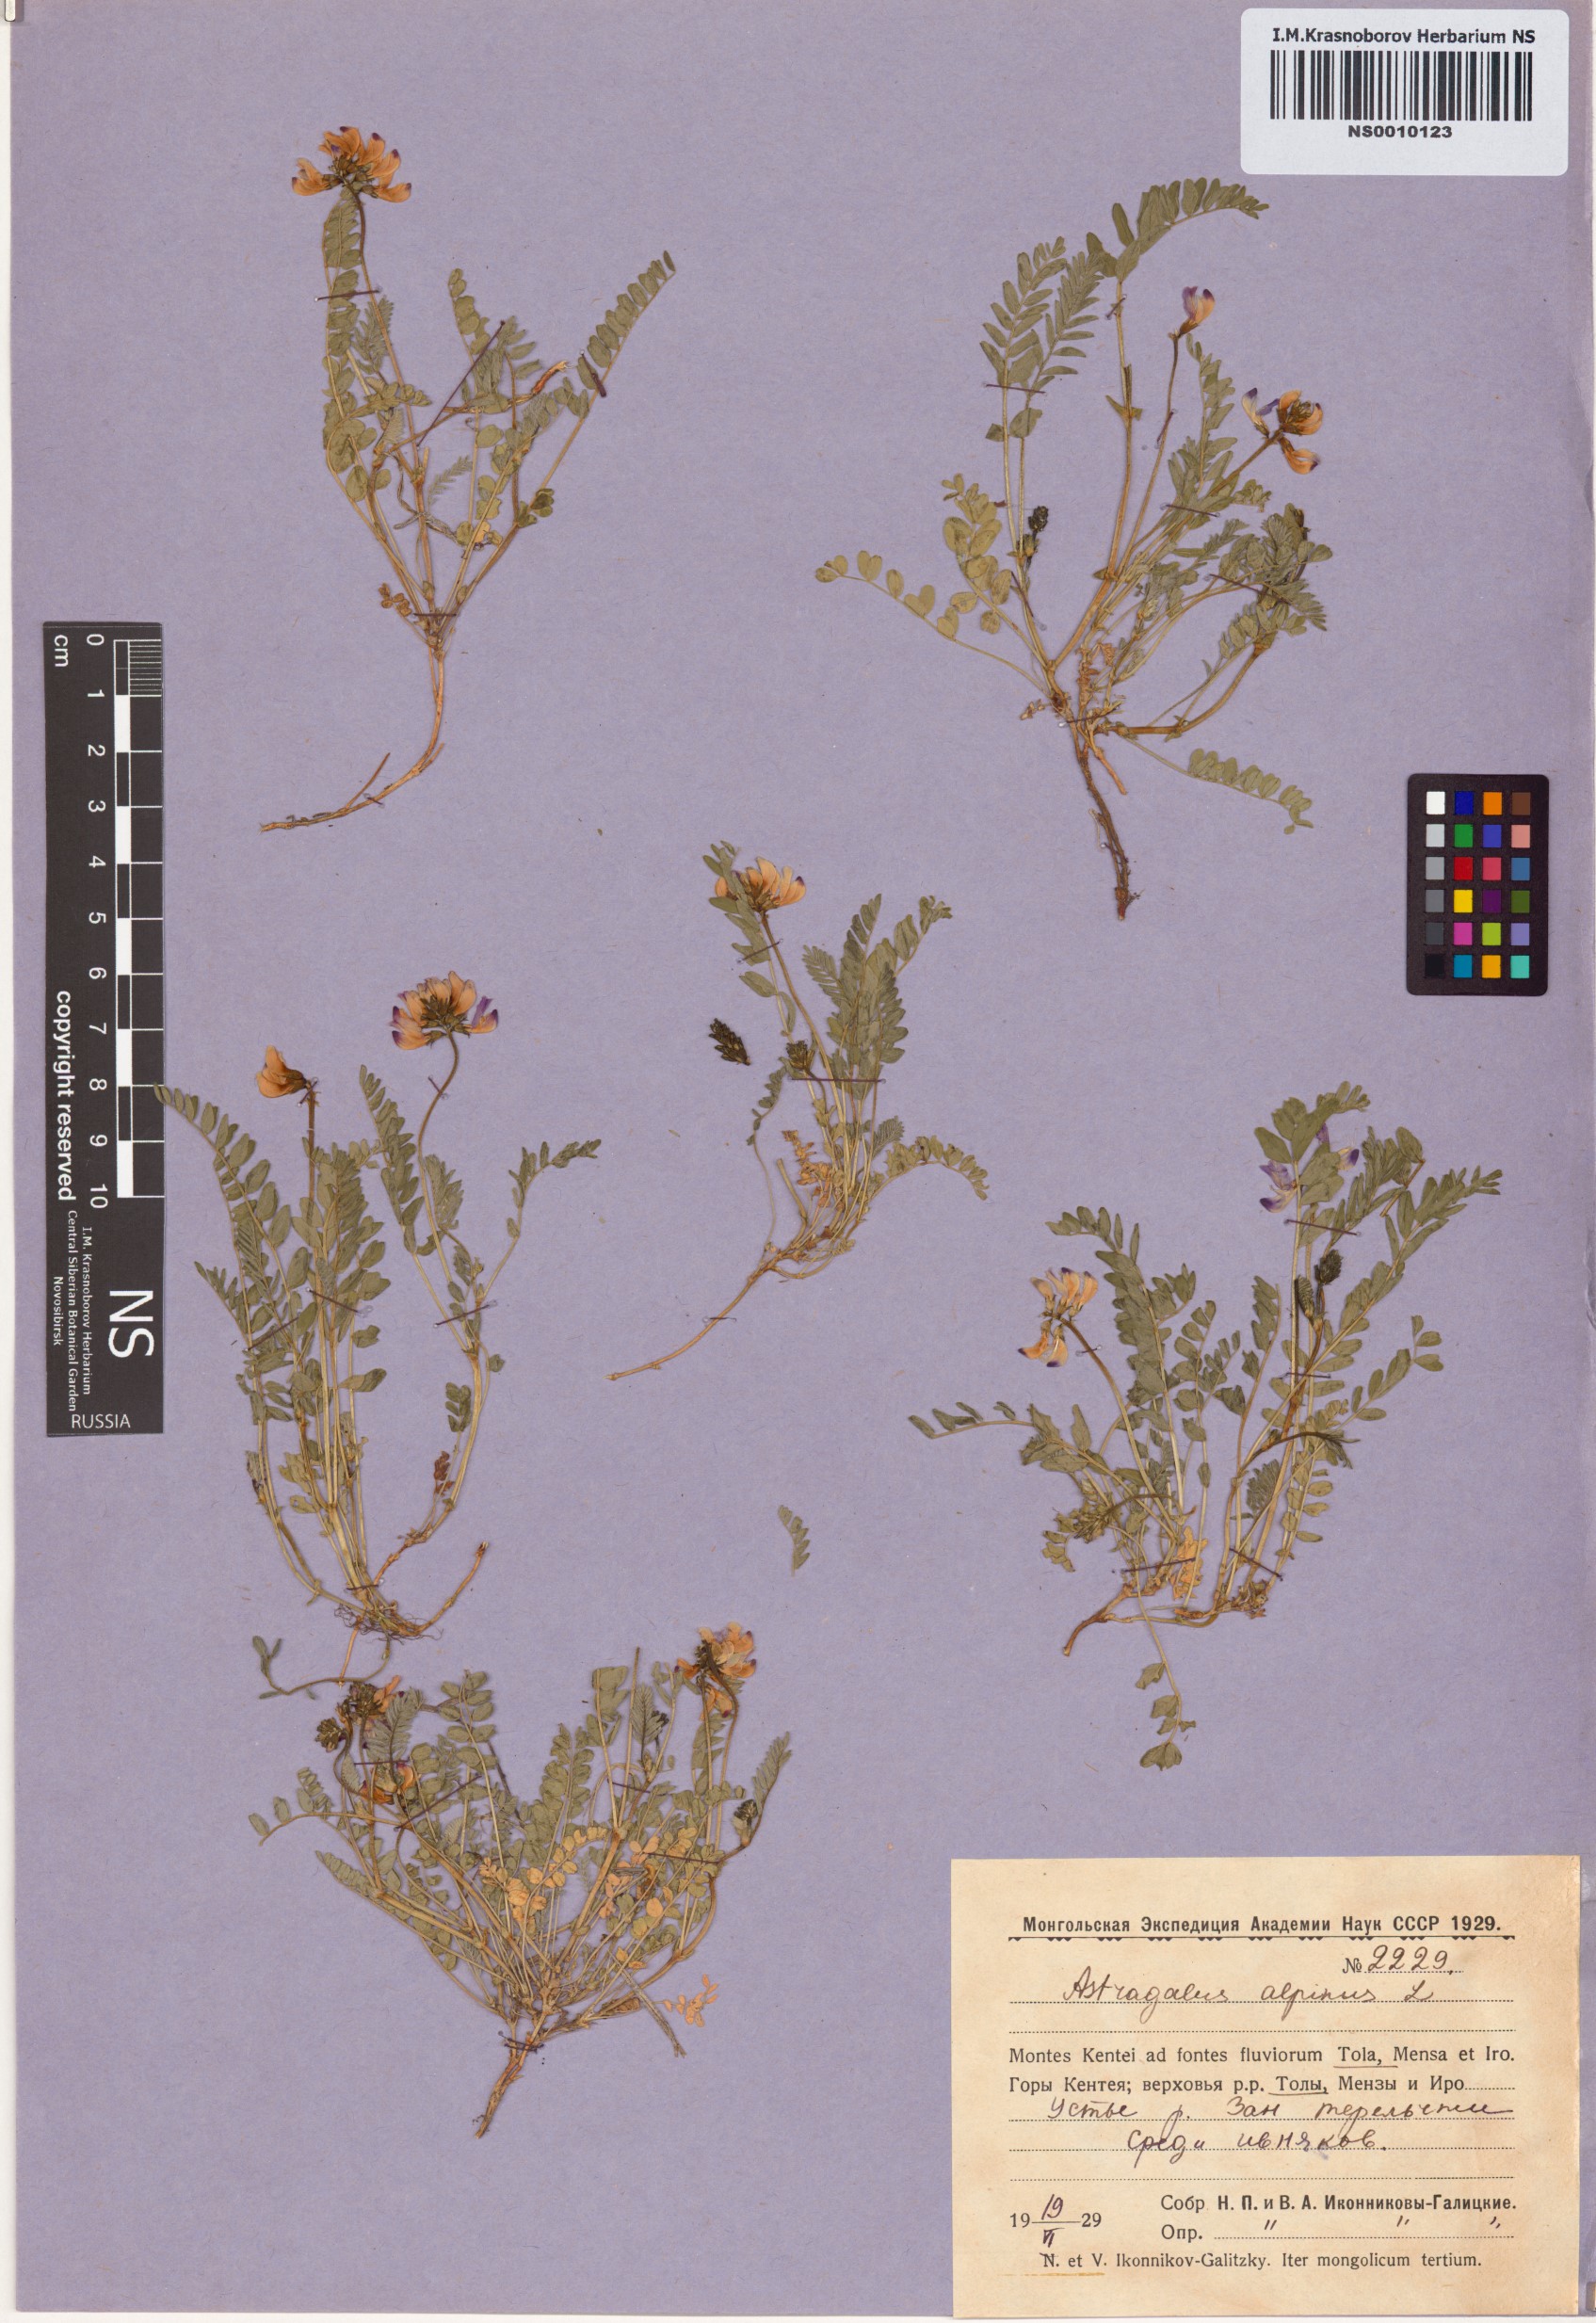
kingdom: Plantae
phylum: Tracheophyta
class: Magnoliopsida
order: Fabales
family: Fabaceae
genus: Astragalus
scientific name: Astragalus alpinus
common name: Alpine milk-vetch
